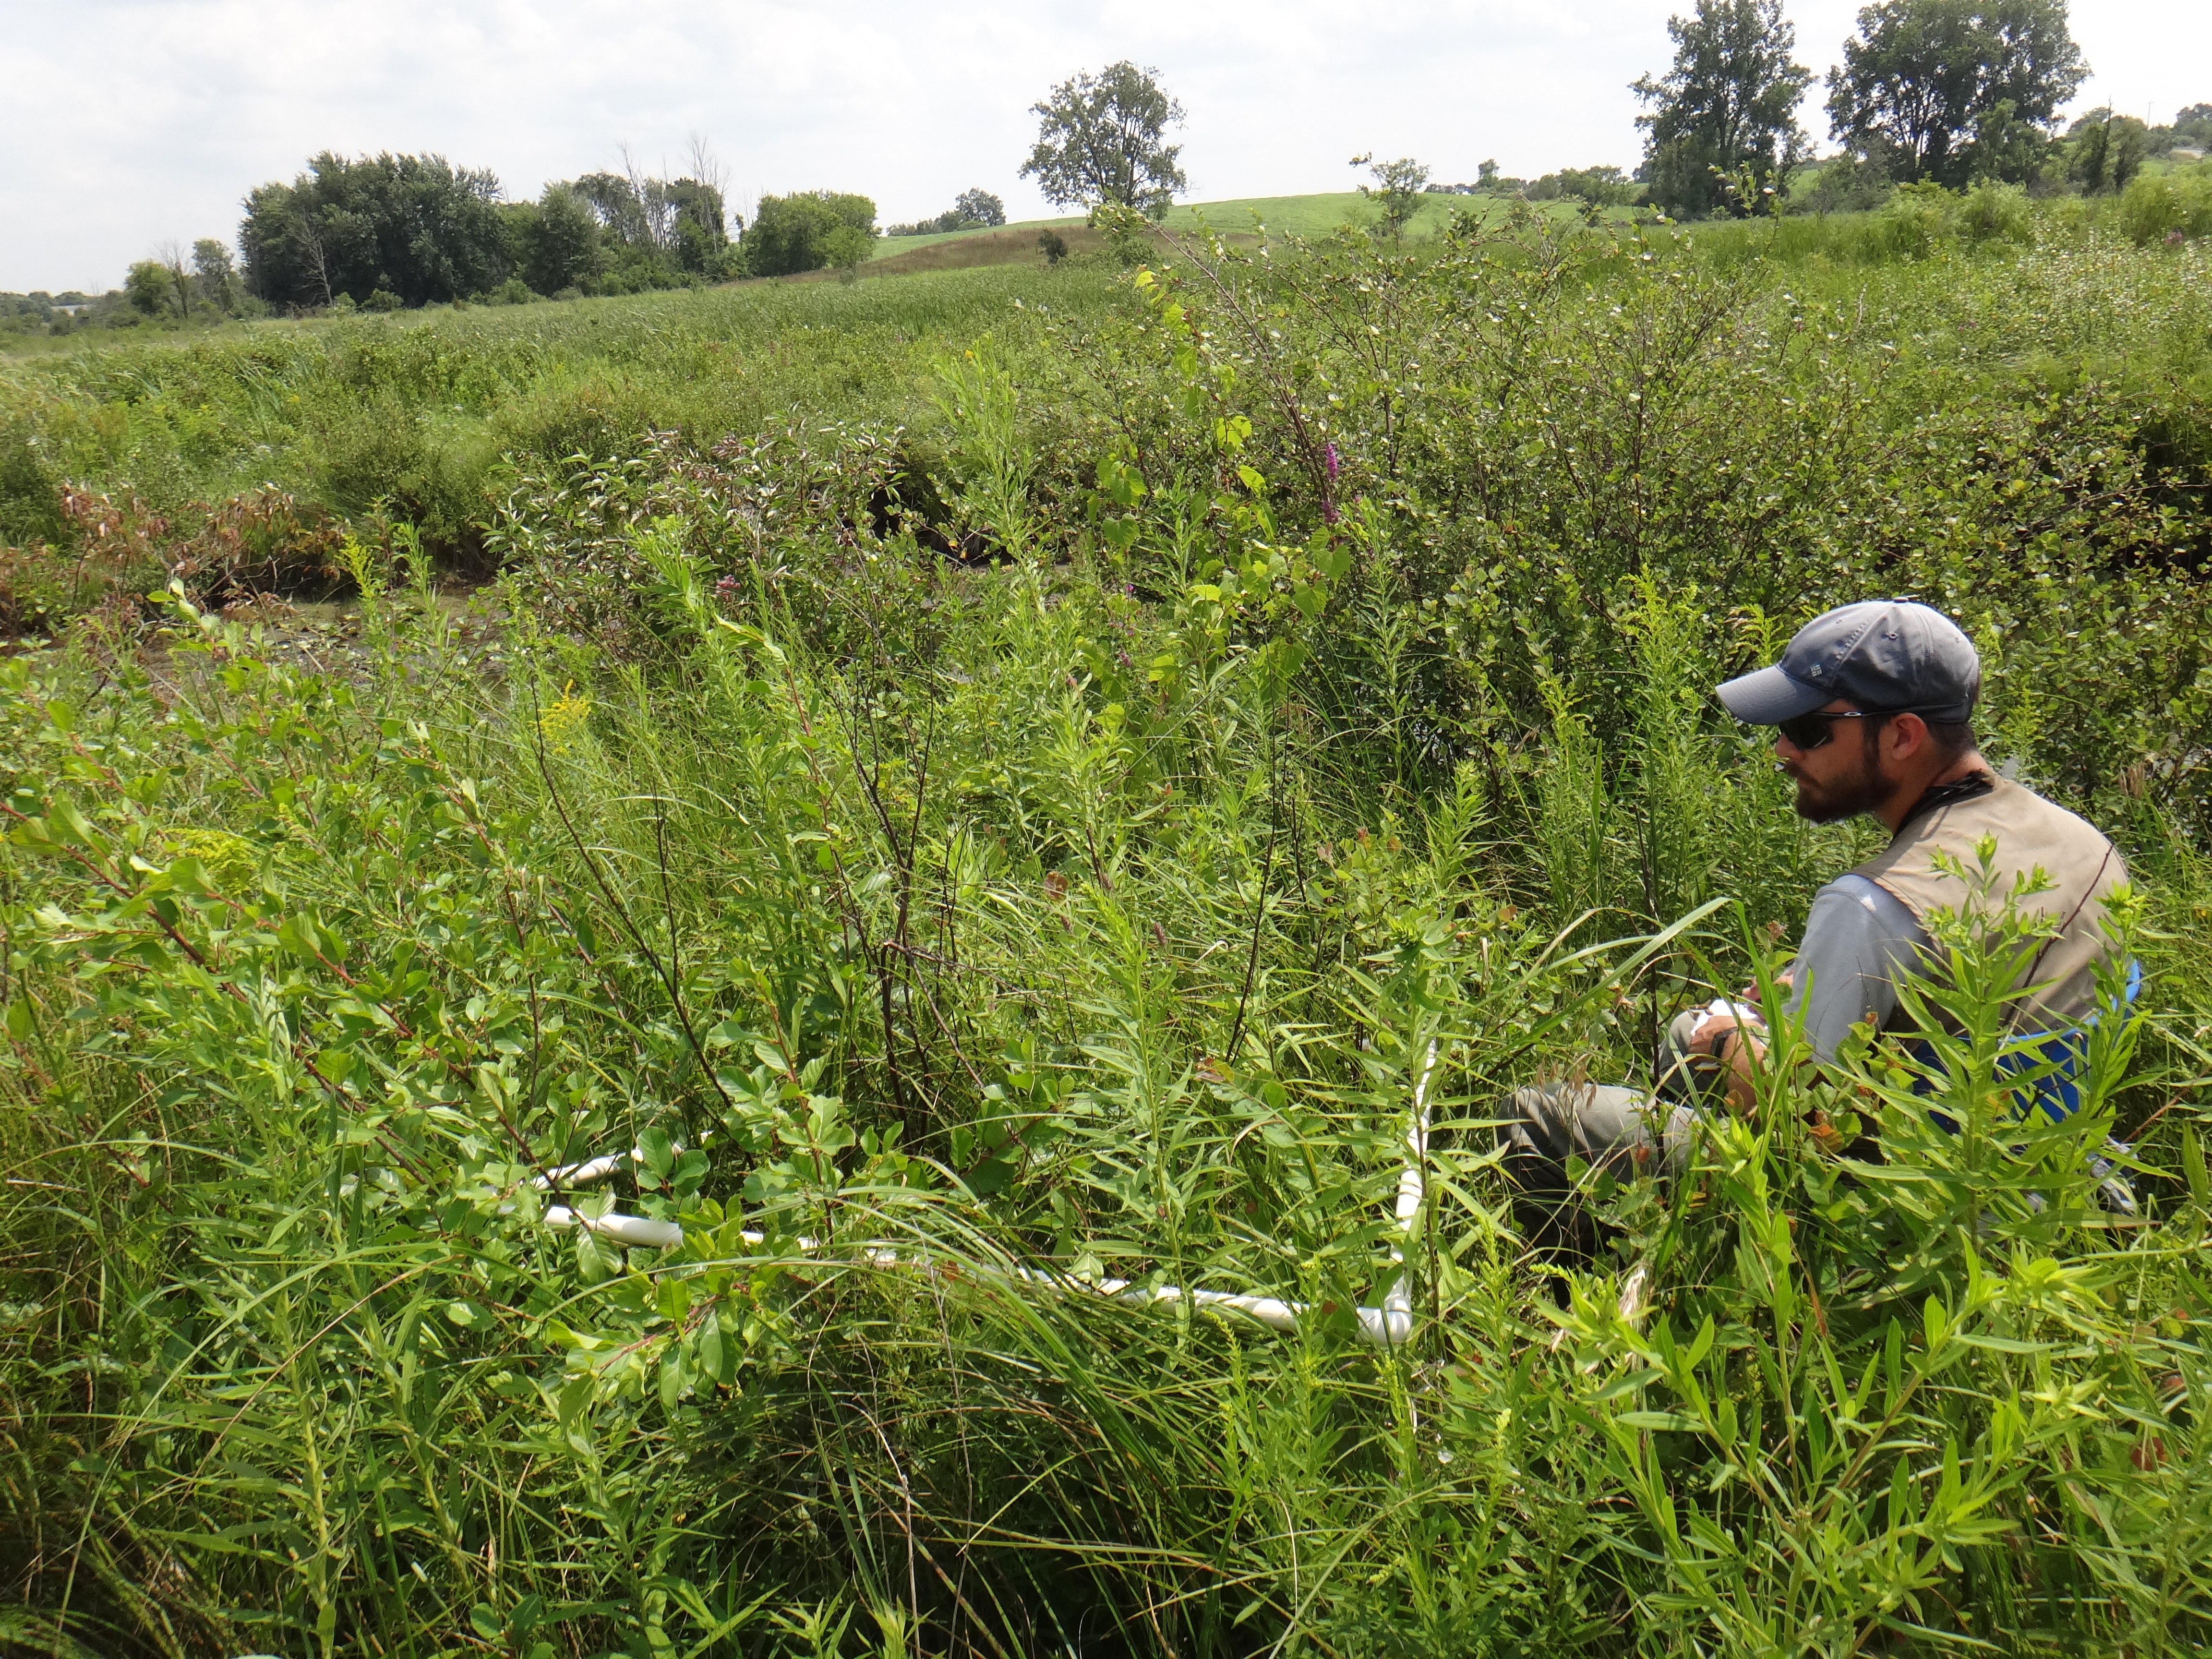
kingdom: Plantae
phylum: Tracheophyta
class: Magnoliopsida
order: Ranunculales
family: Ranunculaceae
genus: Thalictrum
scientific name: Thalictrum dasycarpum
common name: Purple meadow-rue
